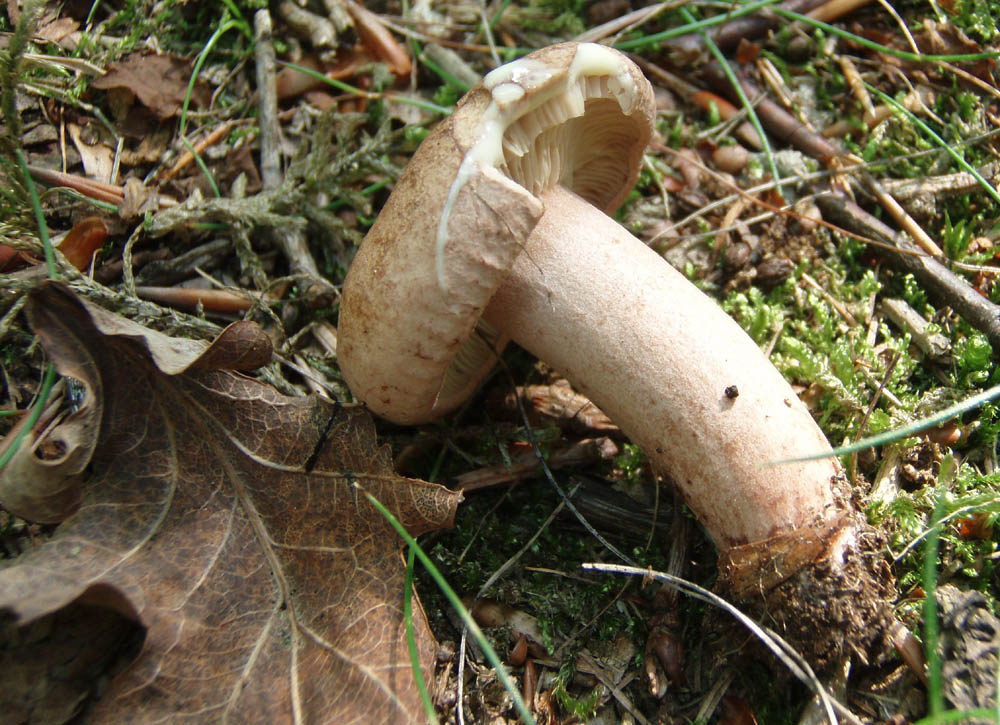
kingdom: Fungi
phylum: Basidiomycota
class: Agaricomycetes
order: Russulales
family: Russulaceae
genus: Lactarius
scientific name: Lactarius quietus
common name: ege-mælkehat
